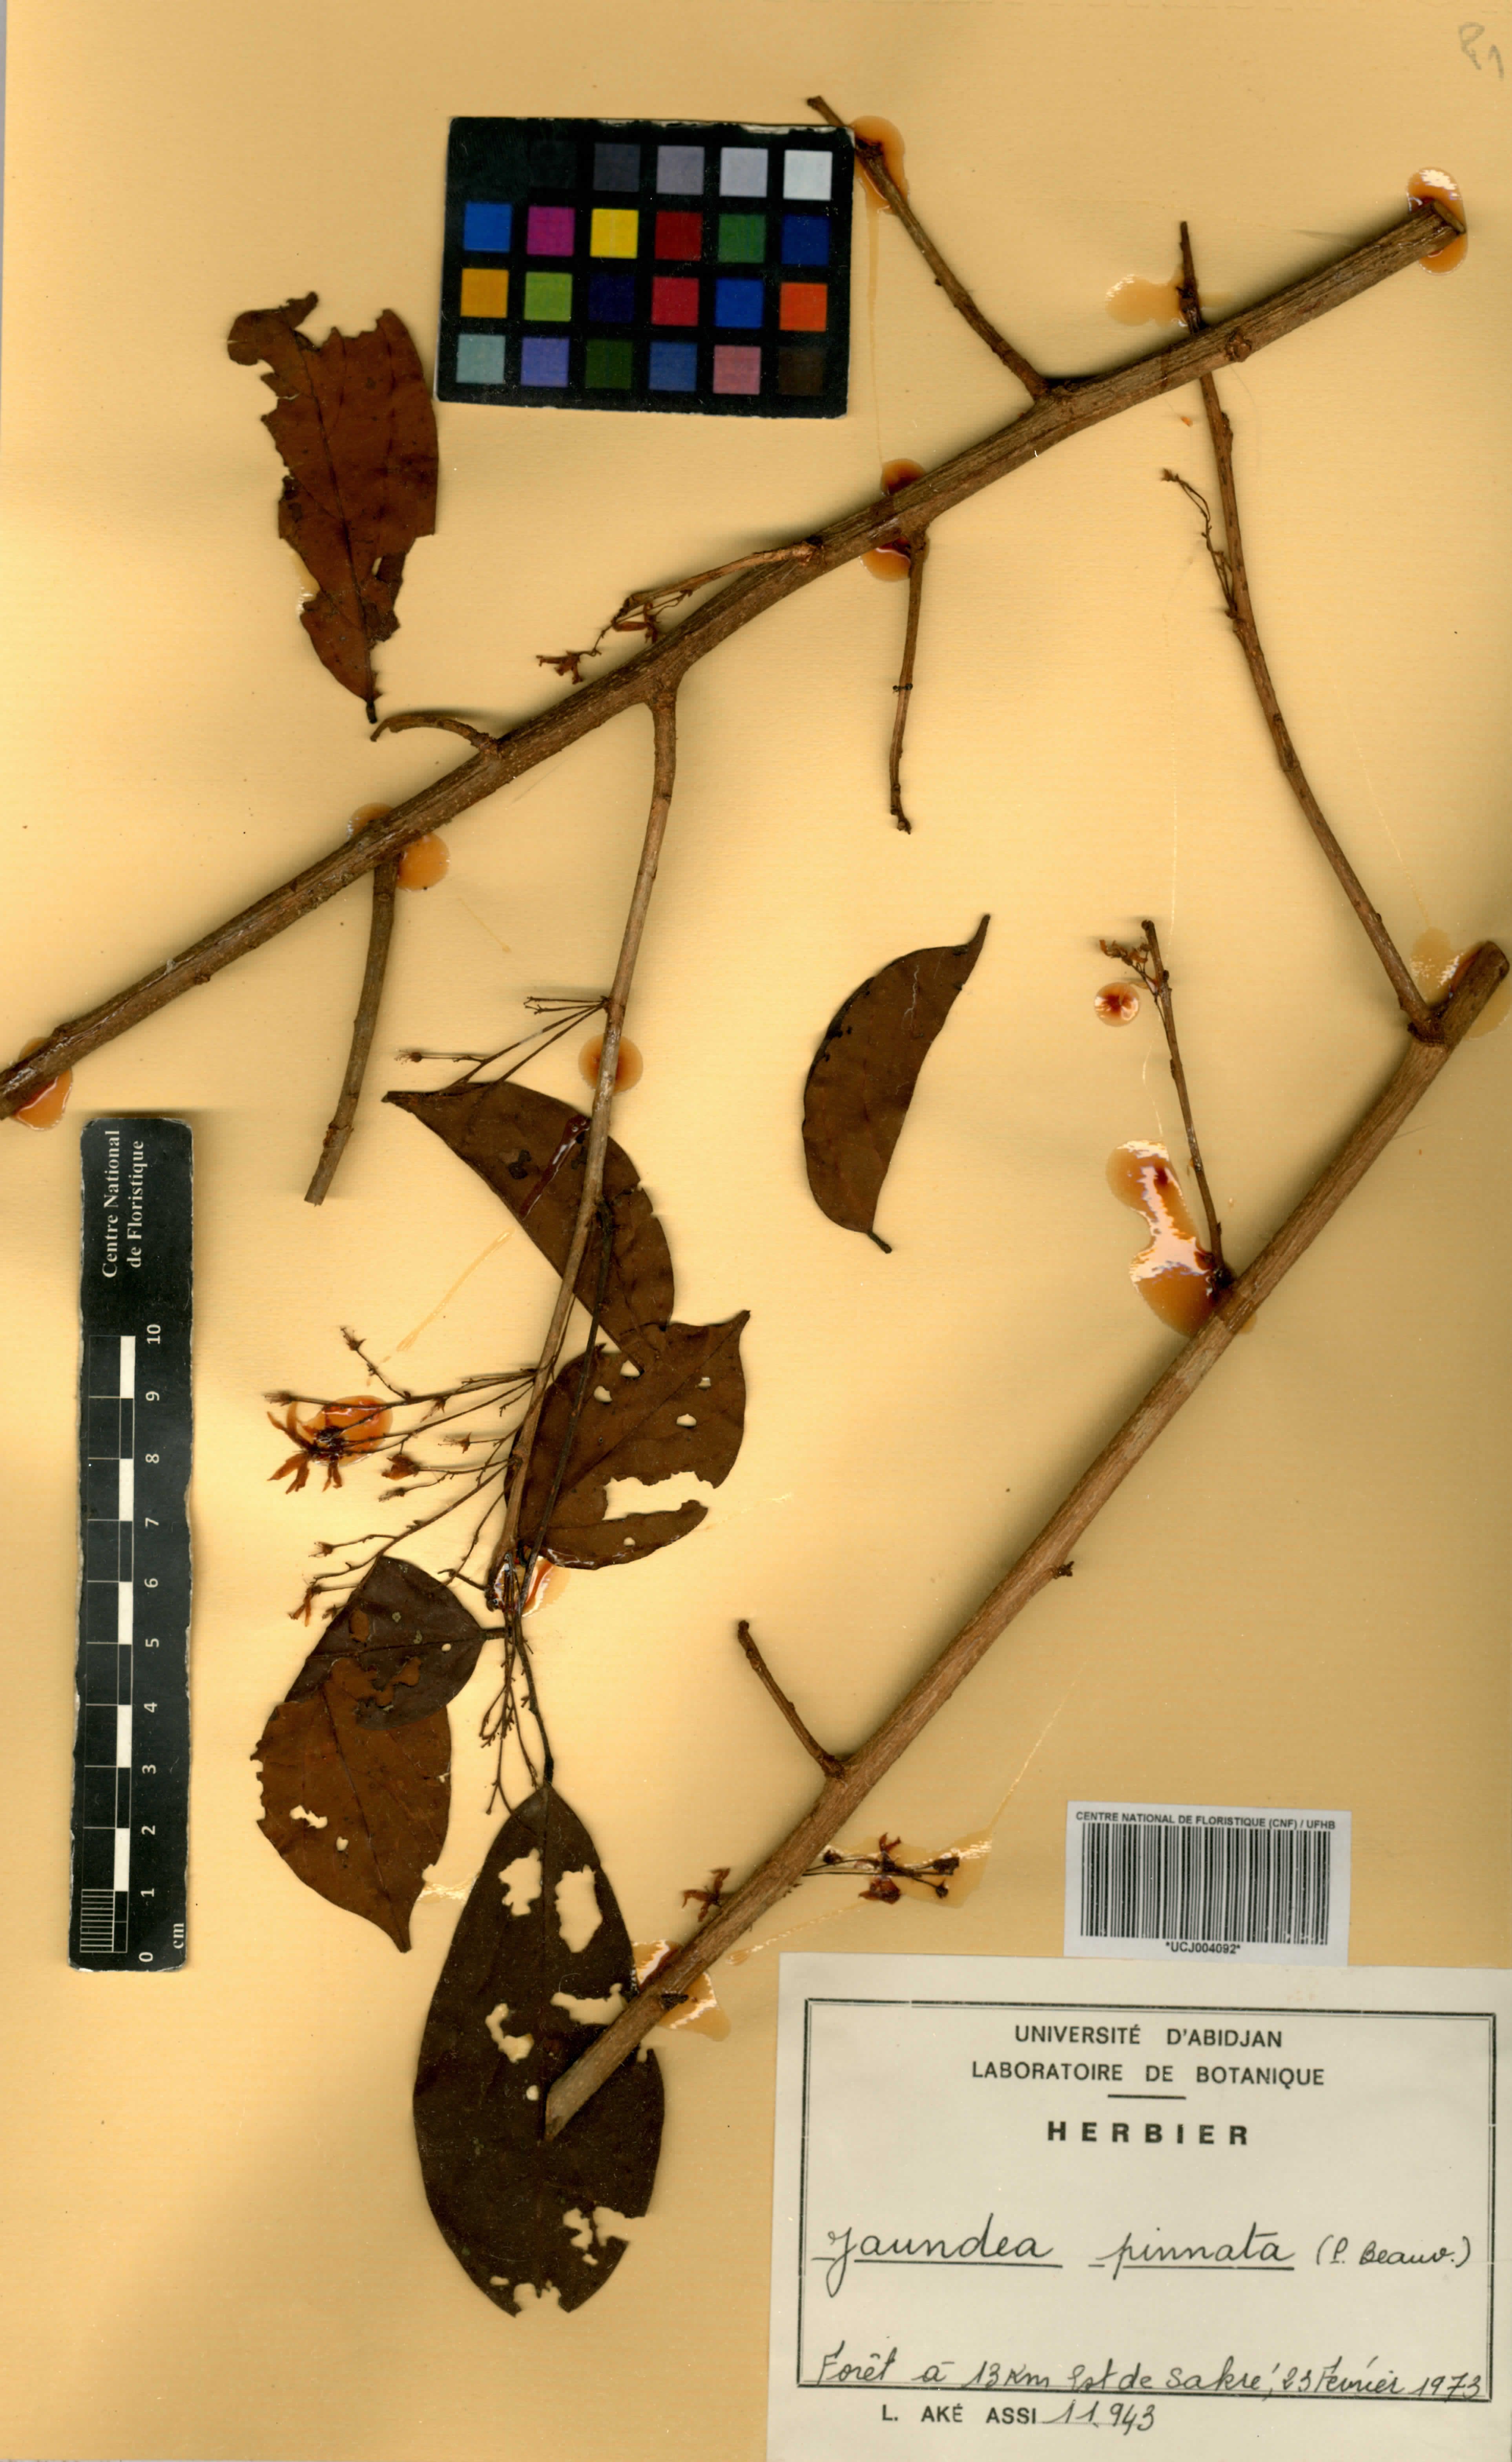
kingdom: Plantae
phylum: Tracheophyta
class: Magnoliopsida
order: Oxalidales
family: Connaraceae
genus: Rourea
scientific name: Rourea thomsonii
